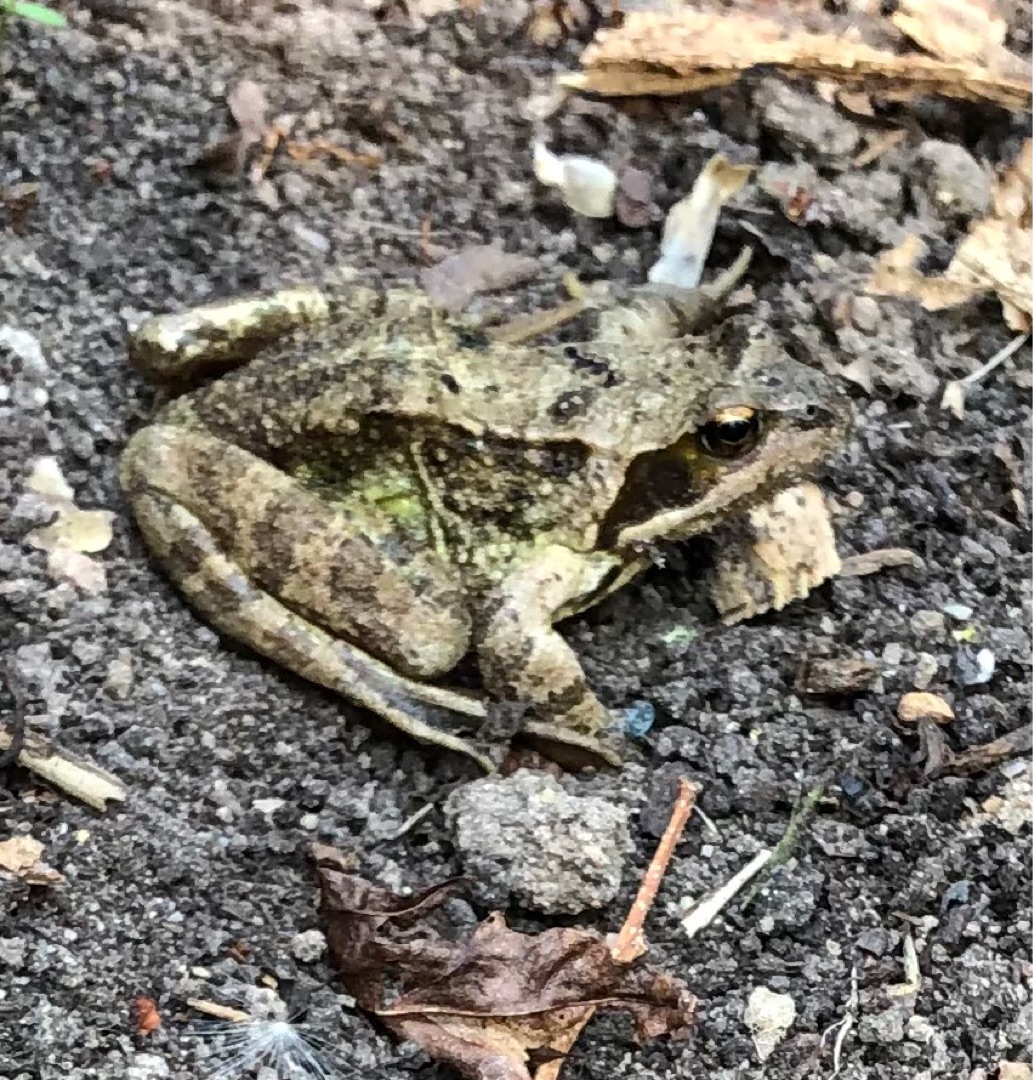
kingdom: Animalia
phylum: Chordata
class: Amphibia
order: Anura
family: Ranidae
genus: Rana
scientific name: Rana temporaria
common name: Butsnudet frø
